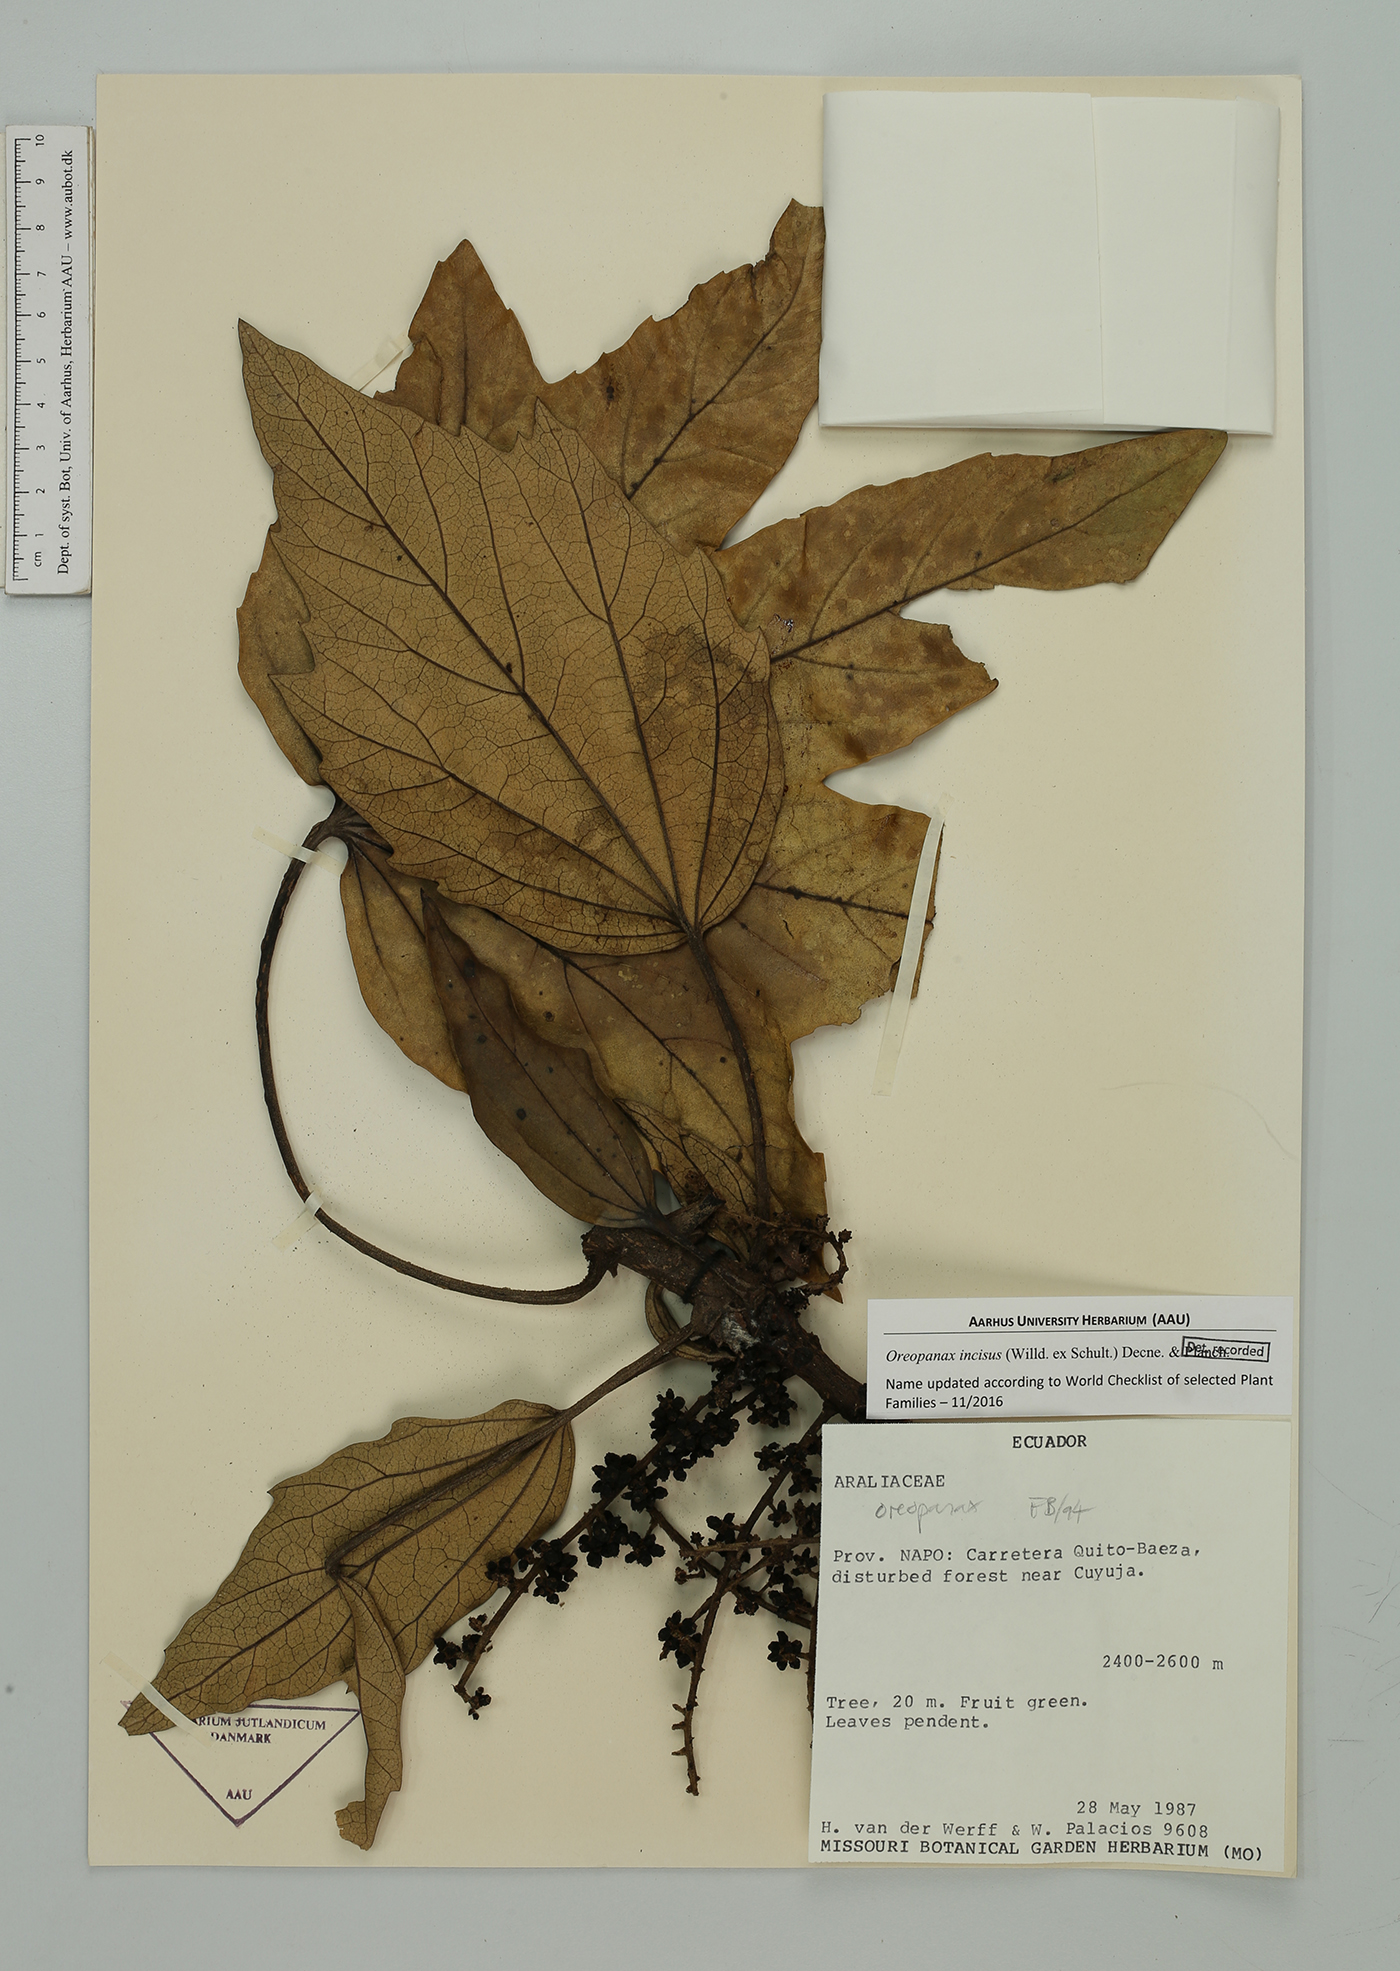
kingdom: Plantae
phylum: Tracheophyta
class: Magnoliopsida
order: Apiales
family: Araliaceae
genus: Oreopanax
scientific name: Oreopanax incisus
